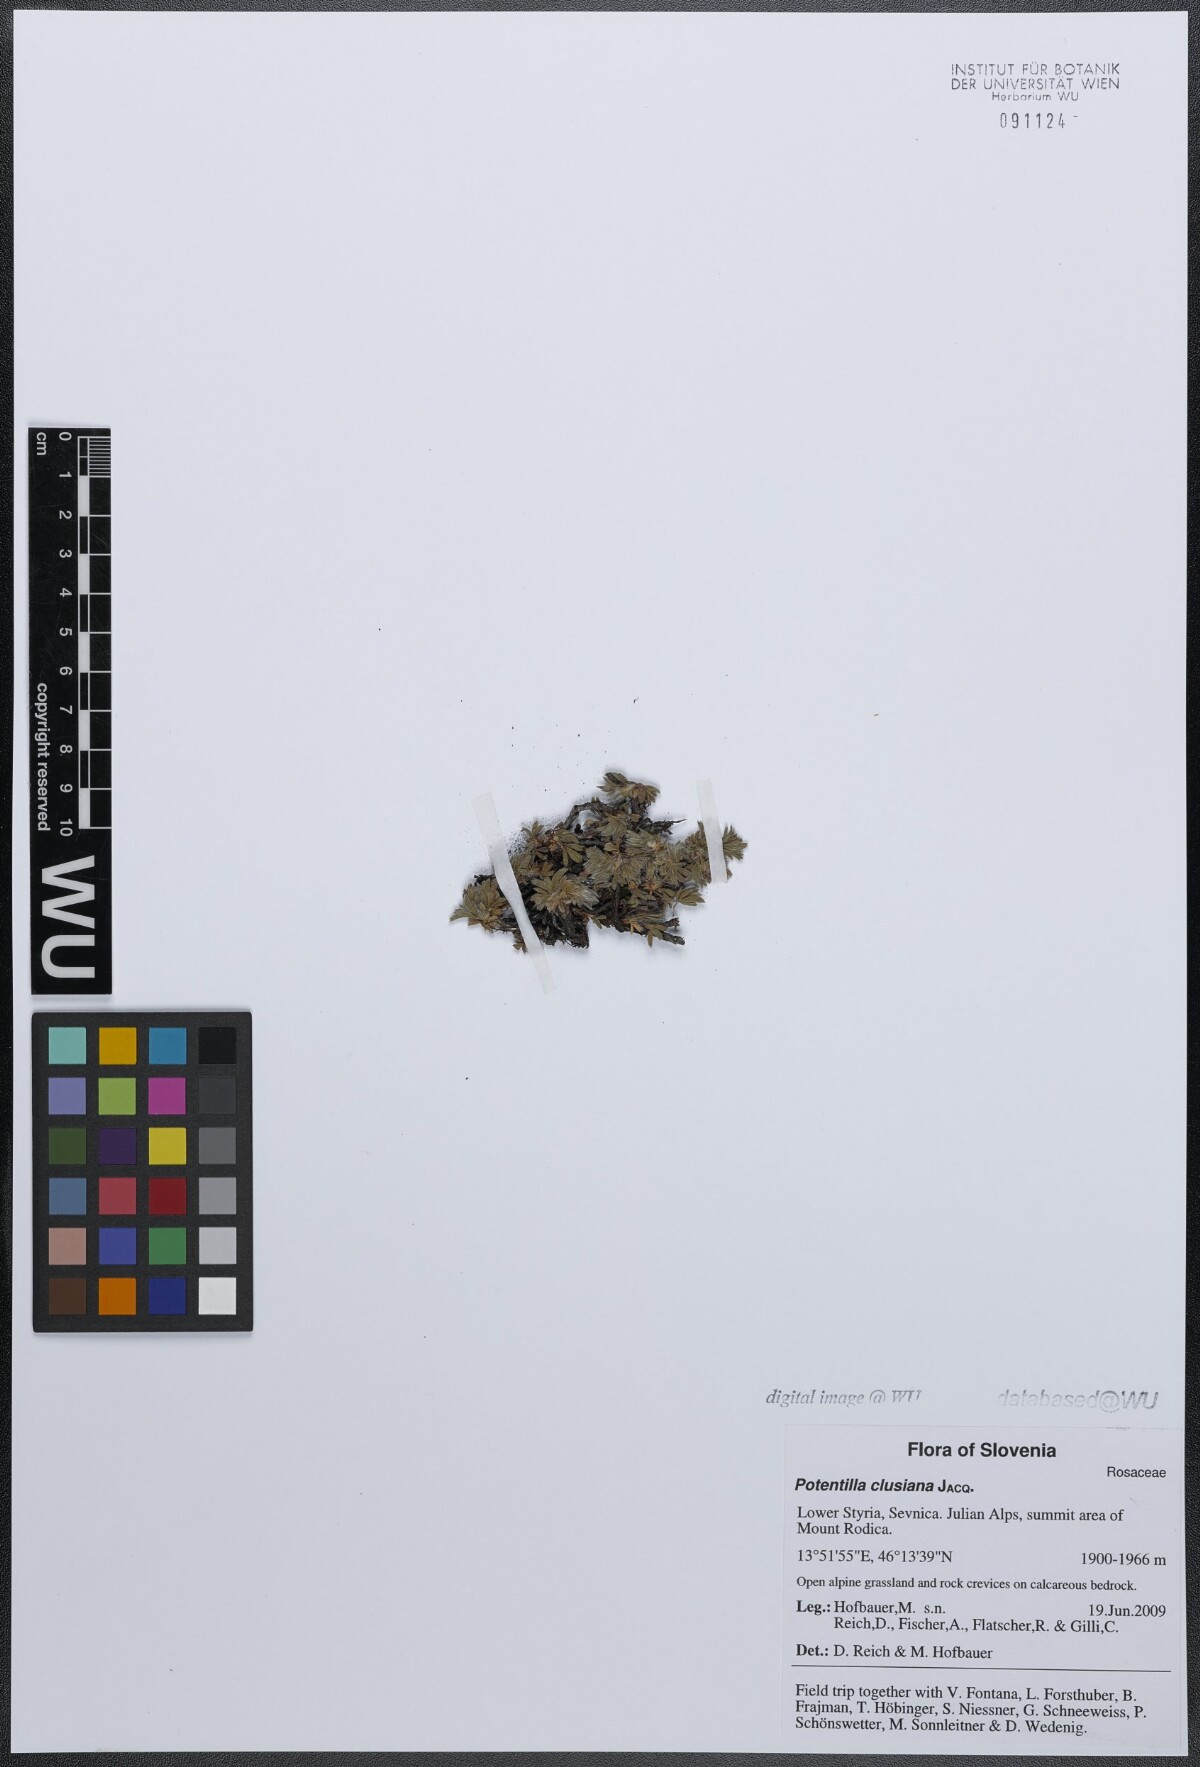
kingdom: Plantae
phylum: Tracheophyta
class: Magnoliopsida
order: Rosales
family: Rosaceae
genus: Potentilla
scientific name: Potentilla clusiana
